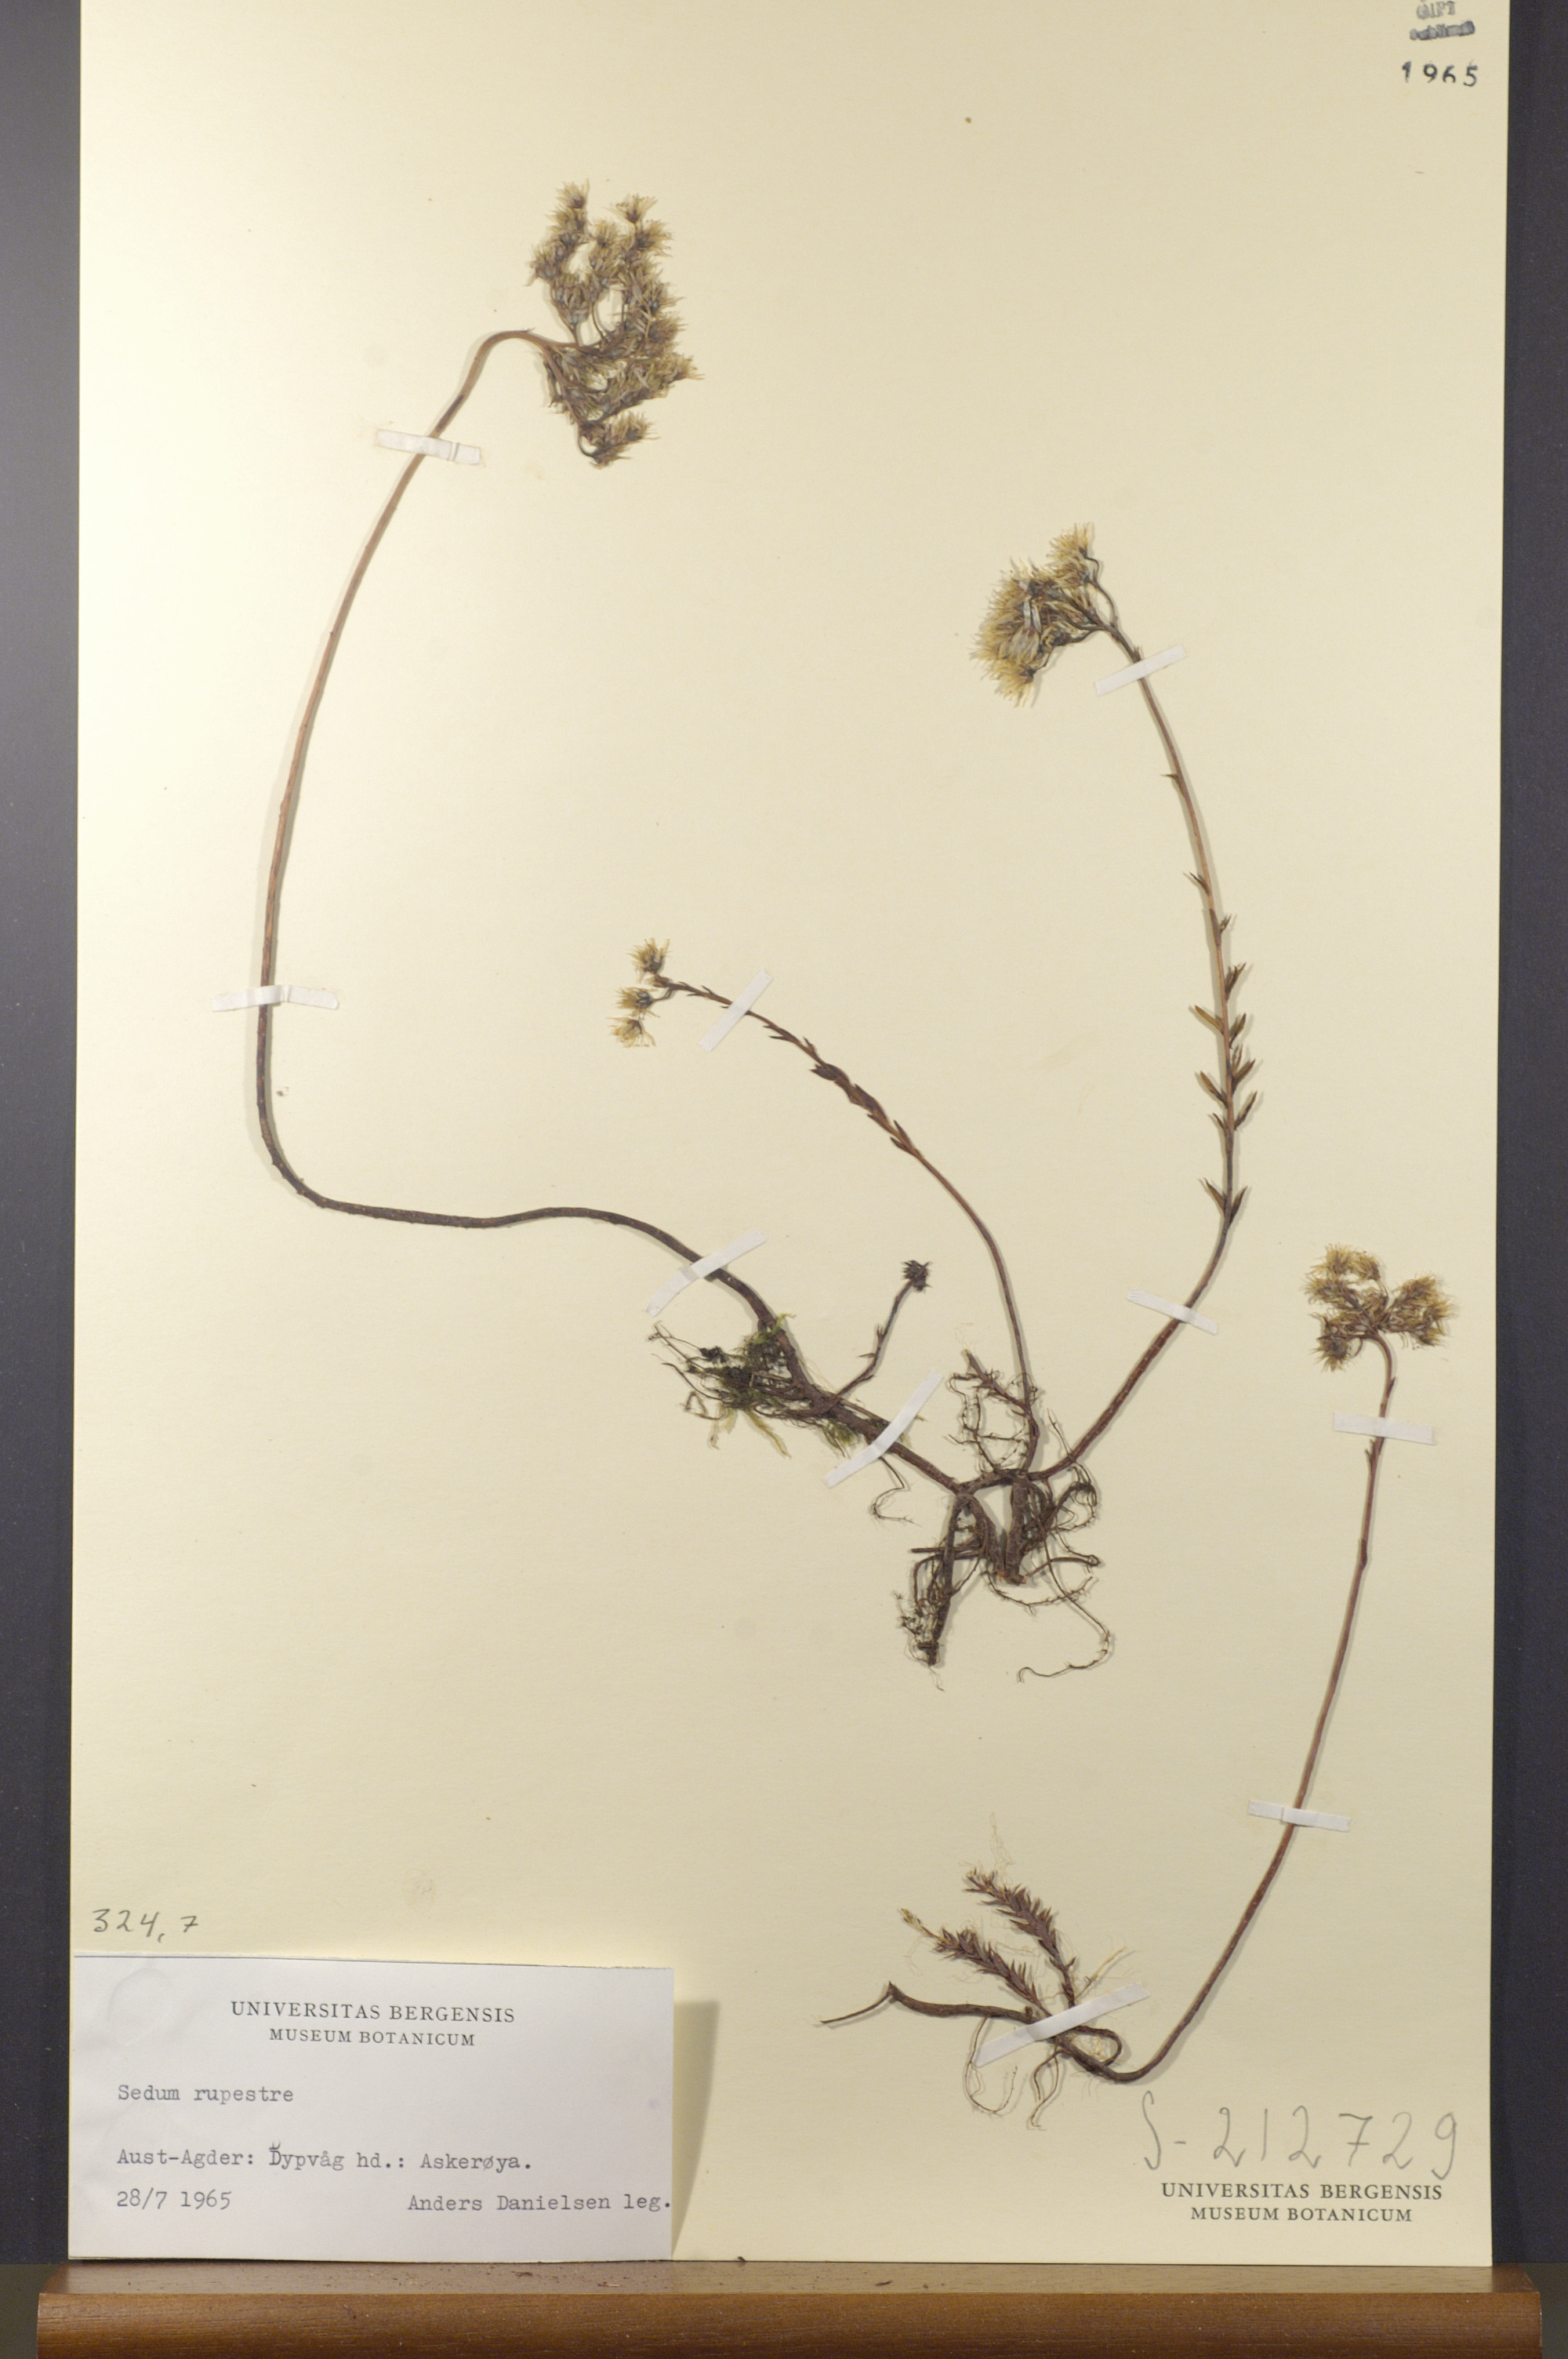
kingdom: Plantae
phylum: Tracheophyta
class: Magnoliopsida
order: Saxifragales
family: Crassulaceae
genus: Petrosedum
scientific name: Petrosedum rupestre
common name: Jenny's stonecrop
